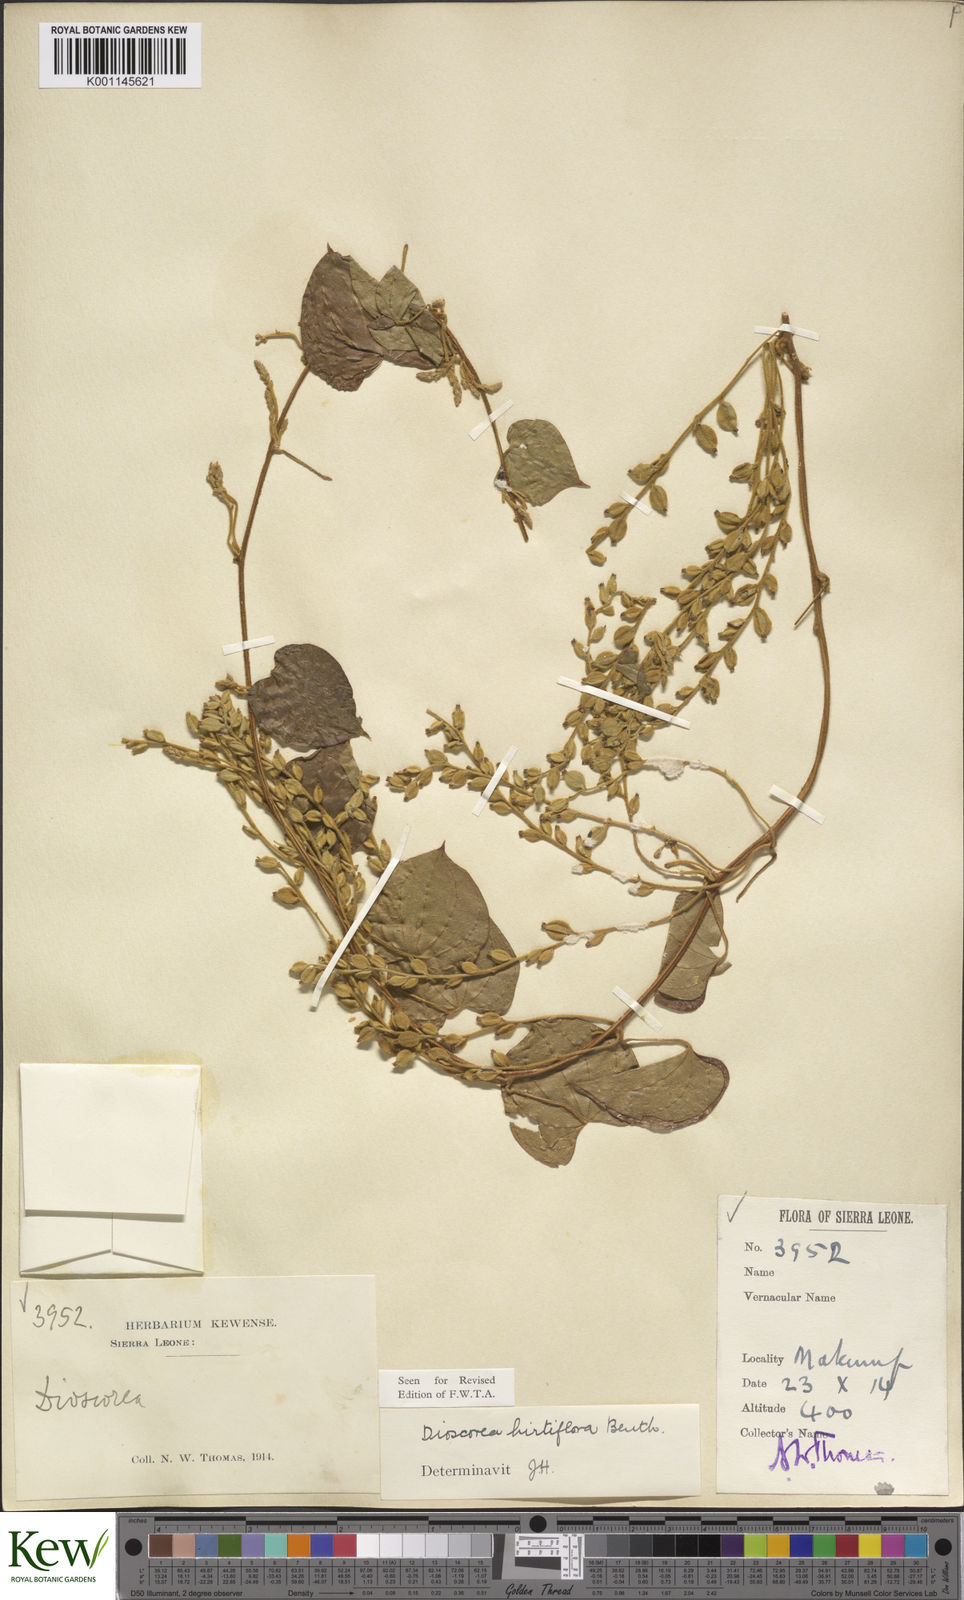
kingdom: Plantae
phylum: Tracheophyta
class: Liliopsida
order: Dioscoreales
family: Dioscoreaceae
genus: Dioscorea
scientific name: Dioscorea hirtiflora
